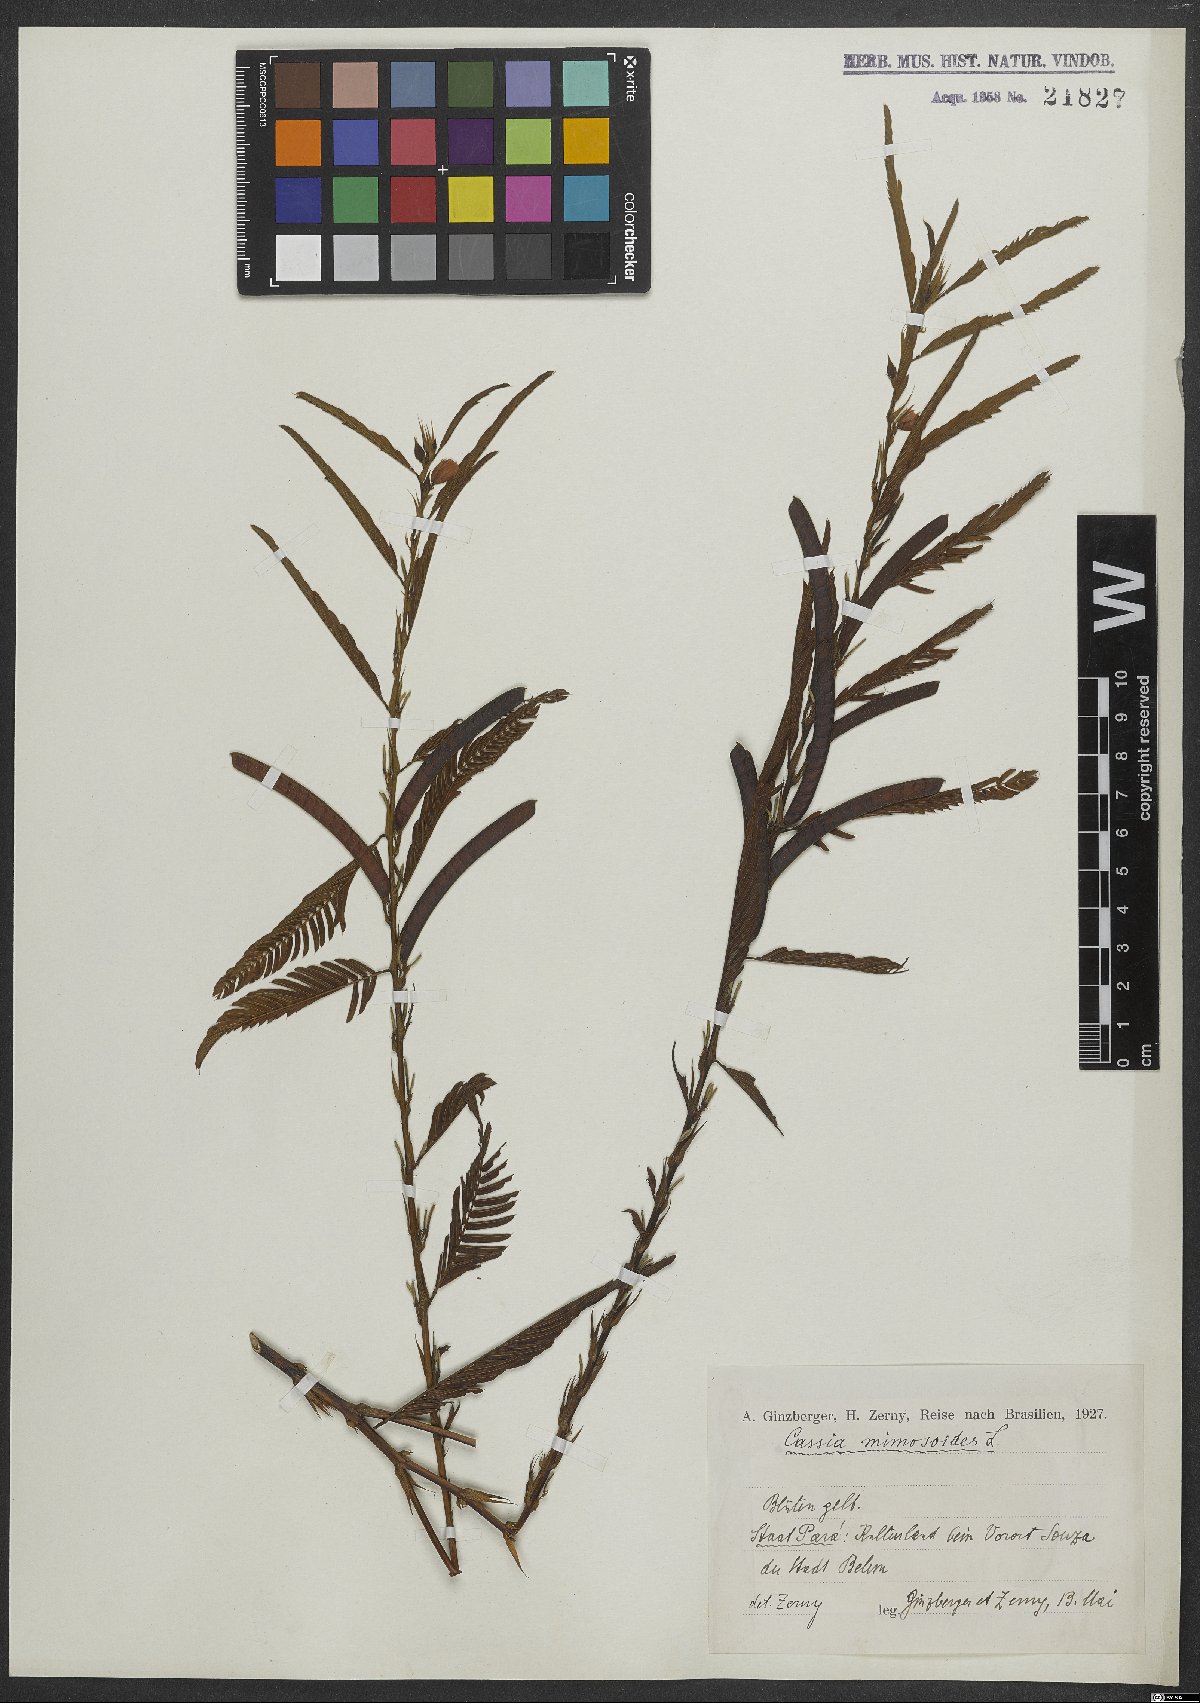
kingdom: Plantae
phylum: Tracheophyta
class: Magnoliopsida
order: Fabales
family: Fabaceae
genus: Chamaecrista
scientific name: Chamaecrista mimosoides
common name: Fish-bone cassia
